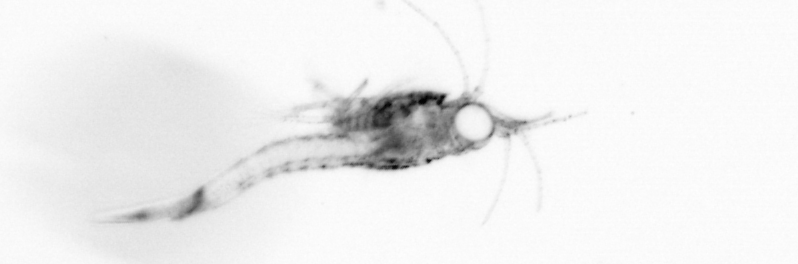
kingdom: Animalia
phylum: Arthropoda
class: Malacostraca
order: Decapoda
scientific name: Decapoda
